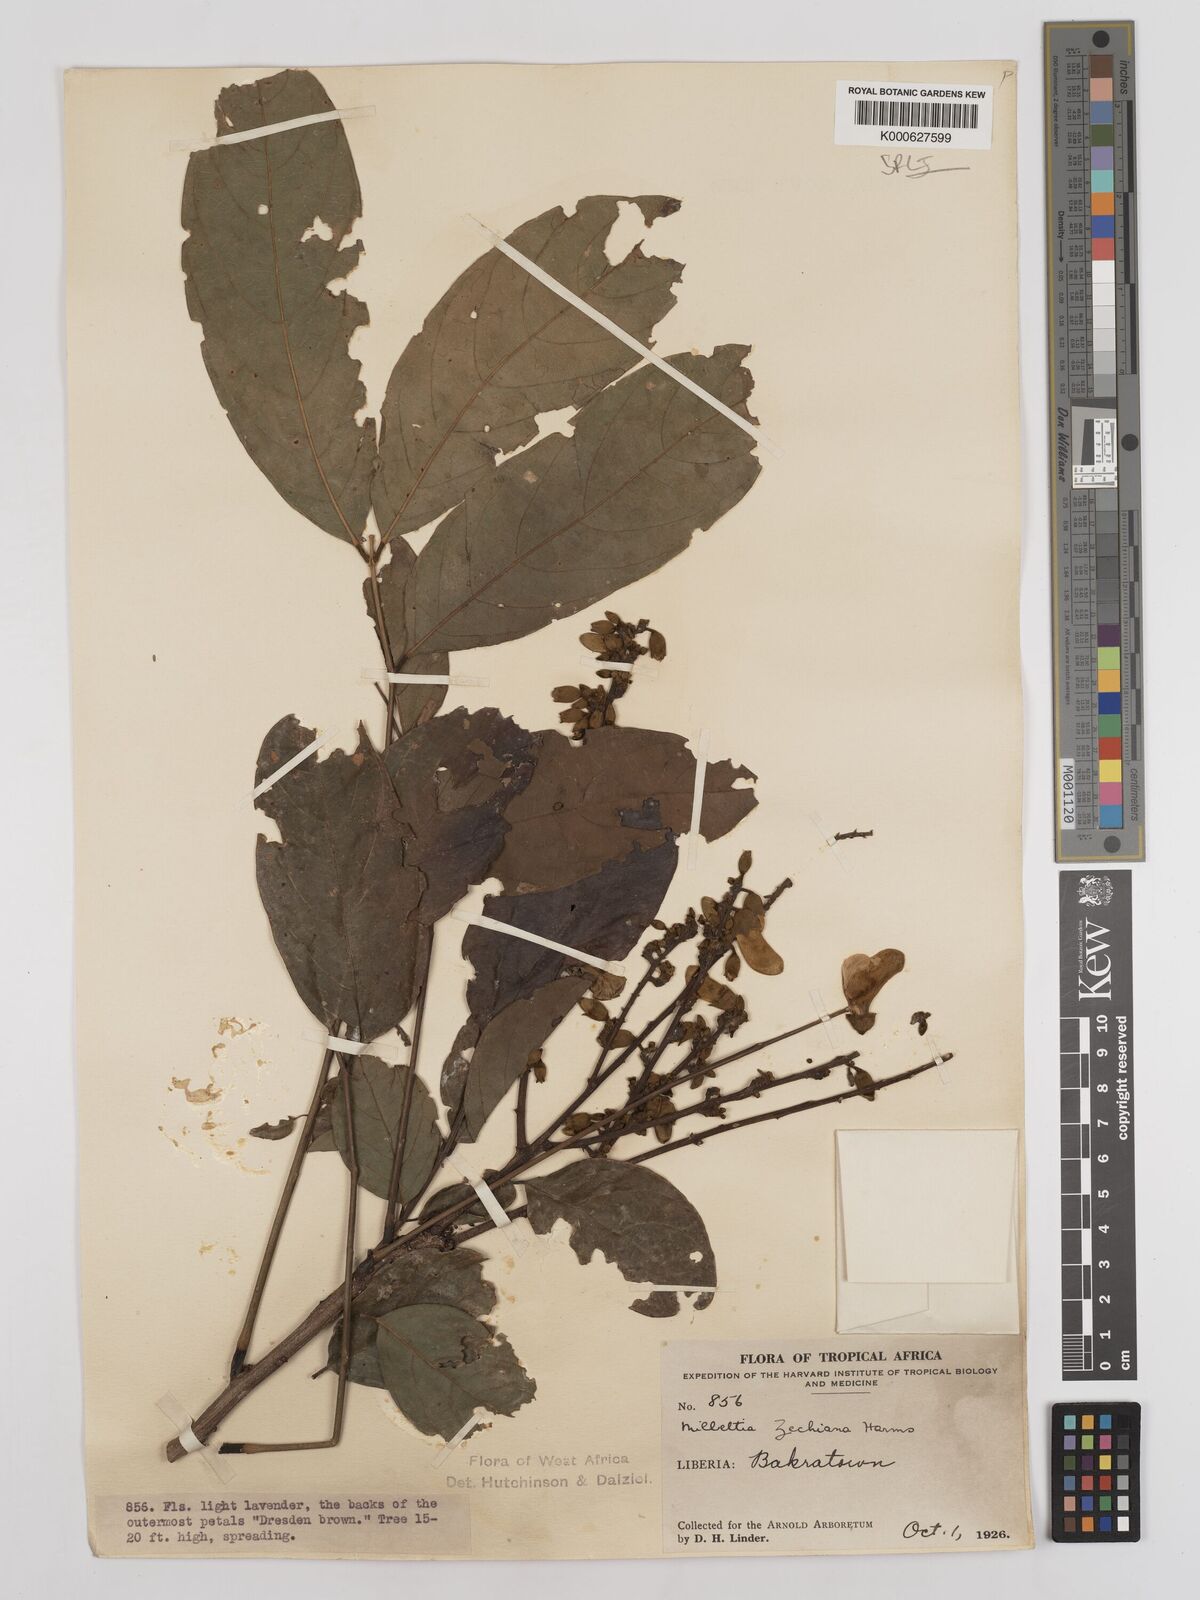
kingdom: Plantae
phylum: Tracheophyta
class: Magnoliopsida
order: Fabales
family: Fabaceae
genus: Millettia
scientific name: Millettia zechiana
